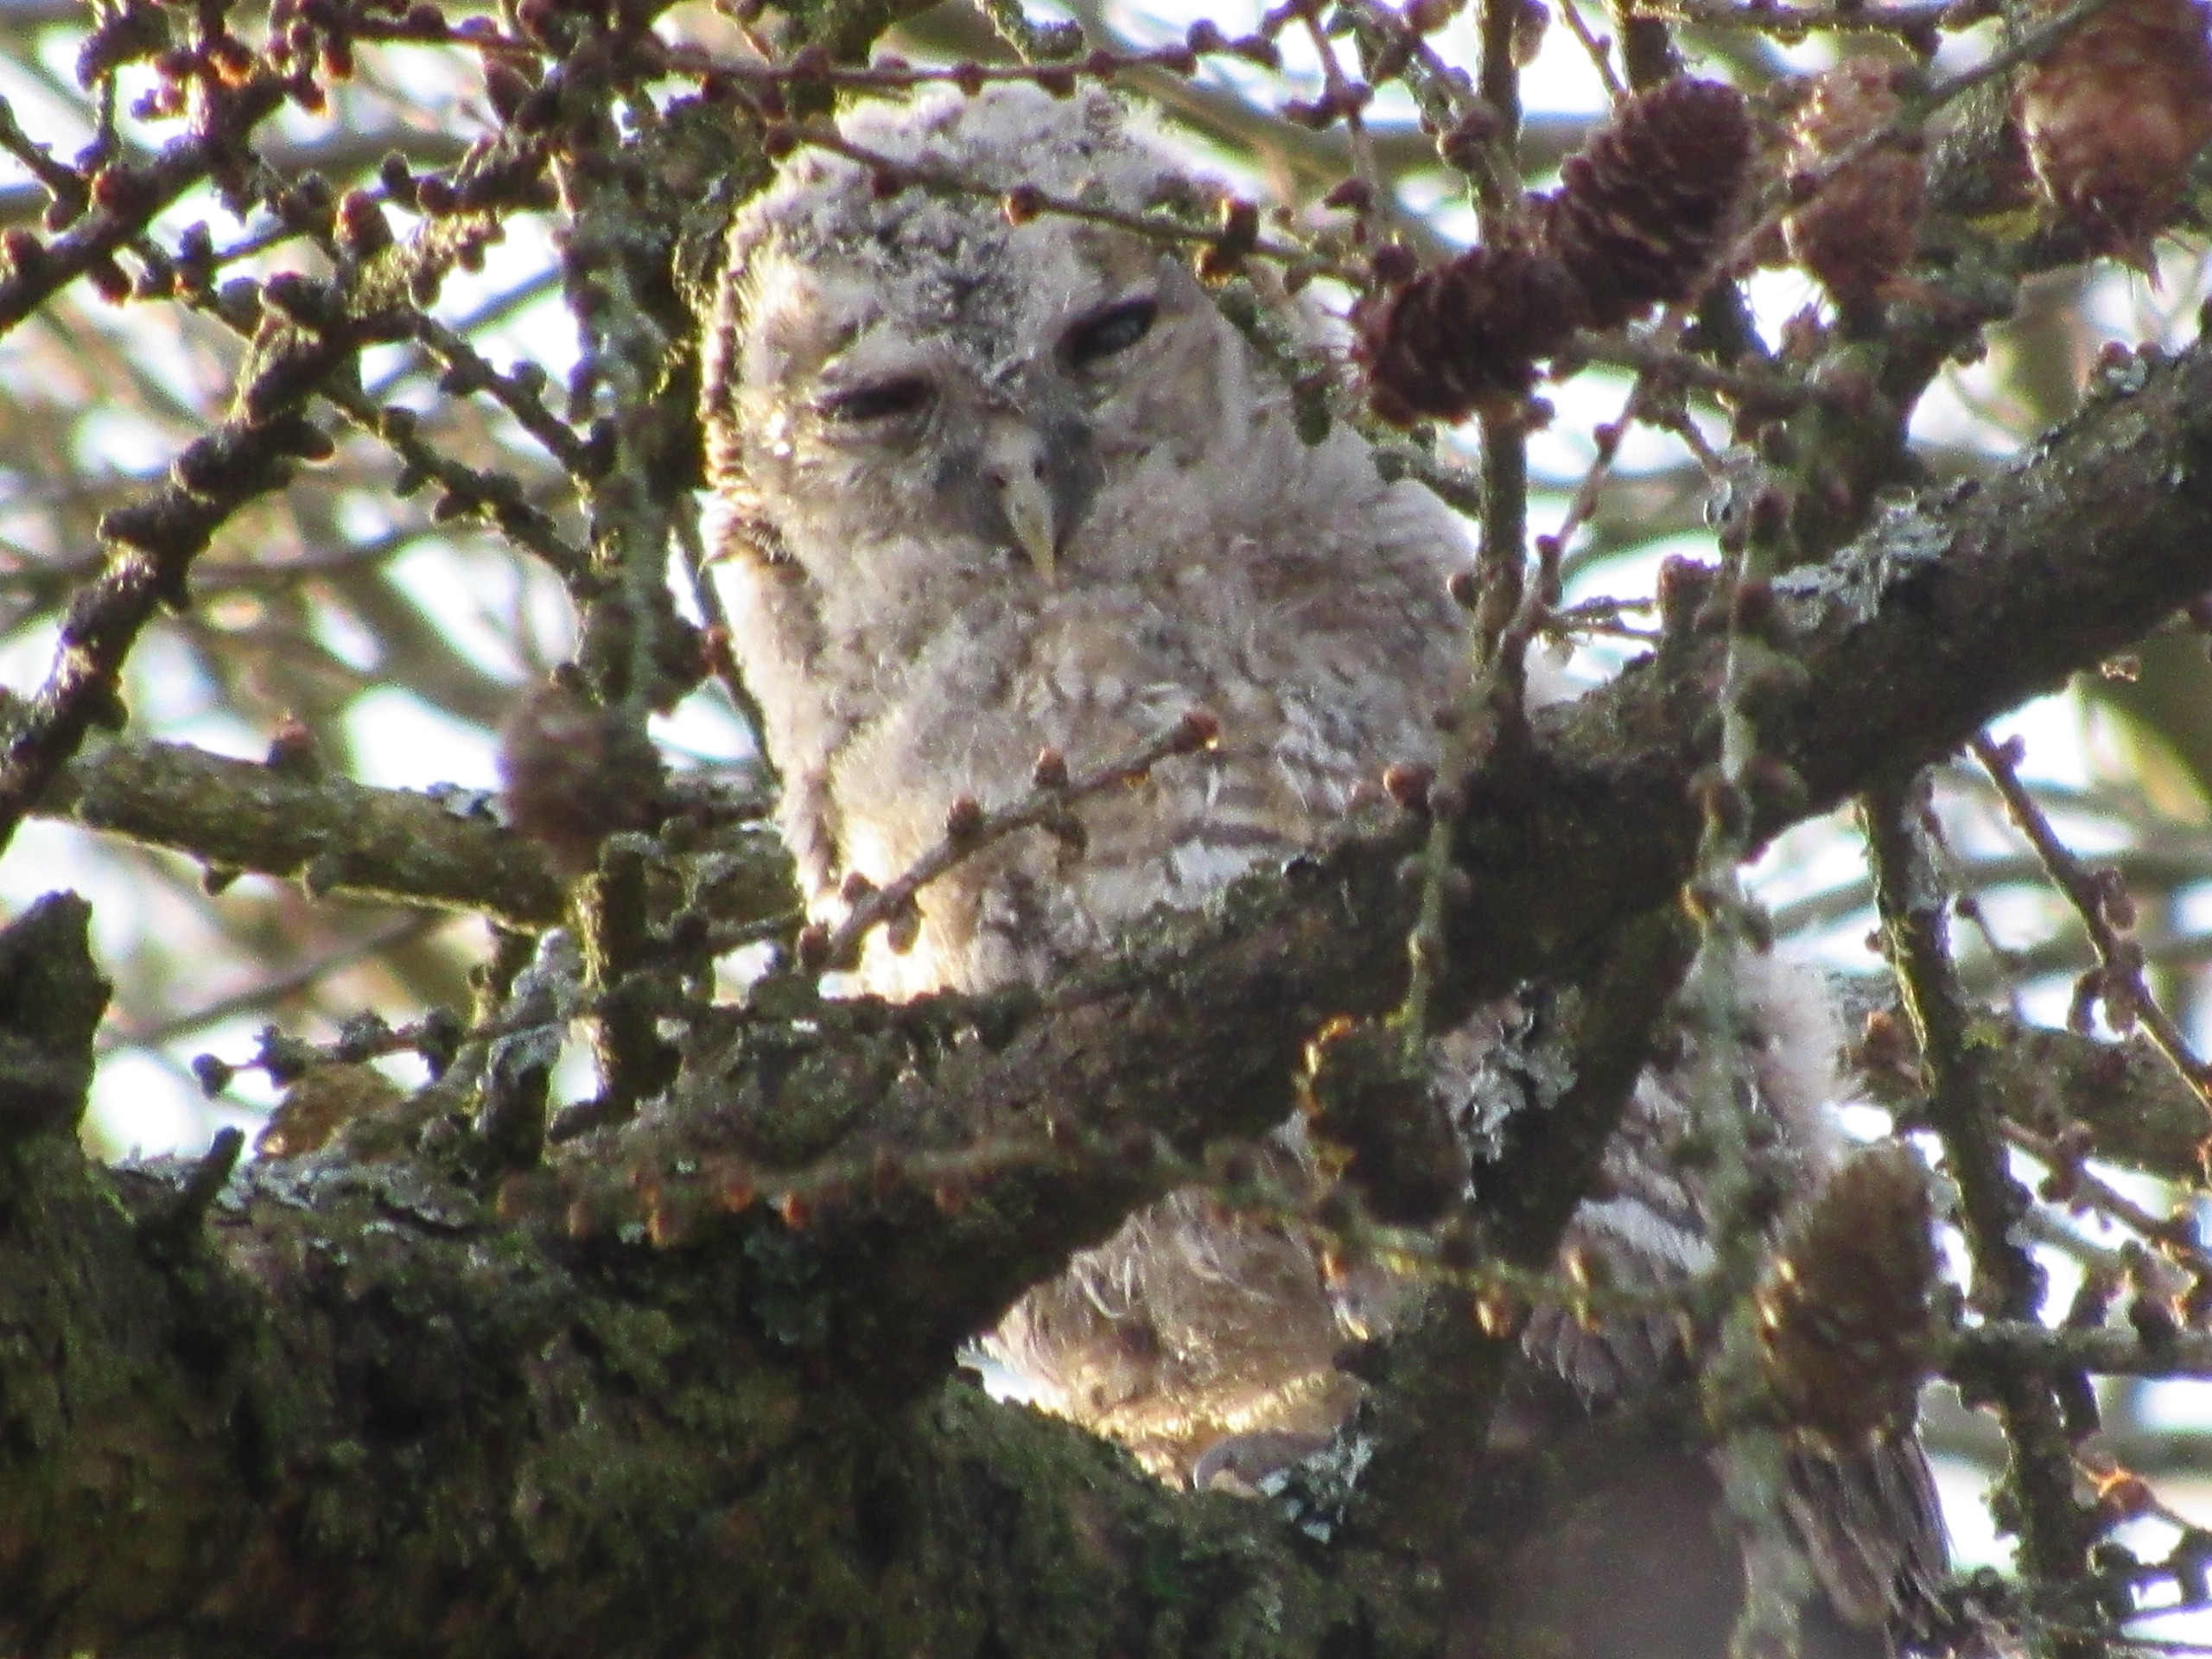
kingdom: Animalia
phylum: Chordata
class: Aves
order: Strigiformes
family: Strigidae
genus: Strix
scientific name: Strix aluco
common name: Natugle
